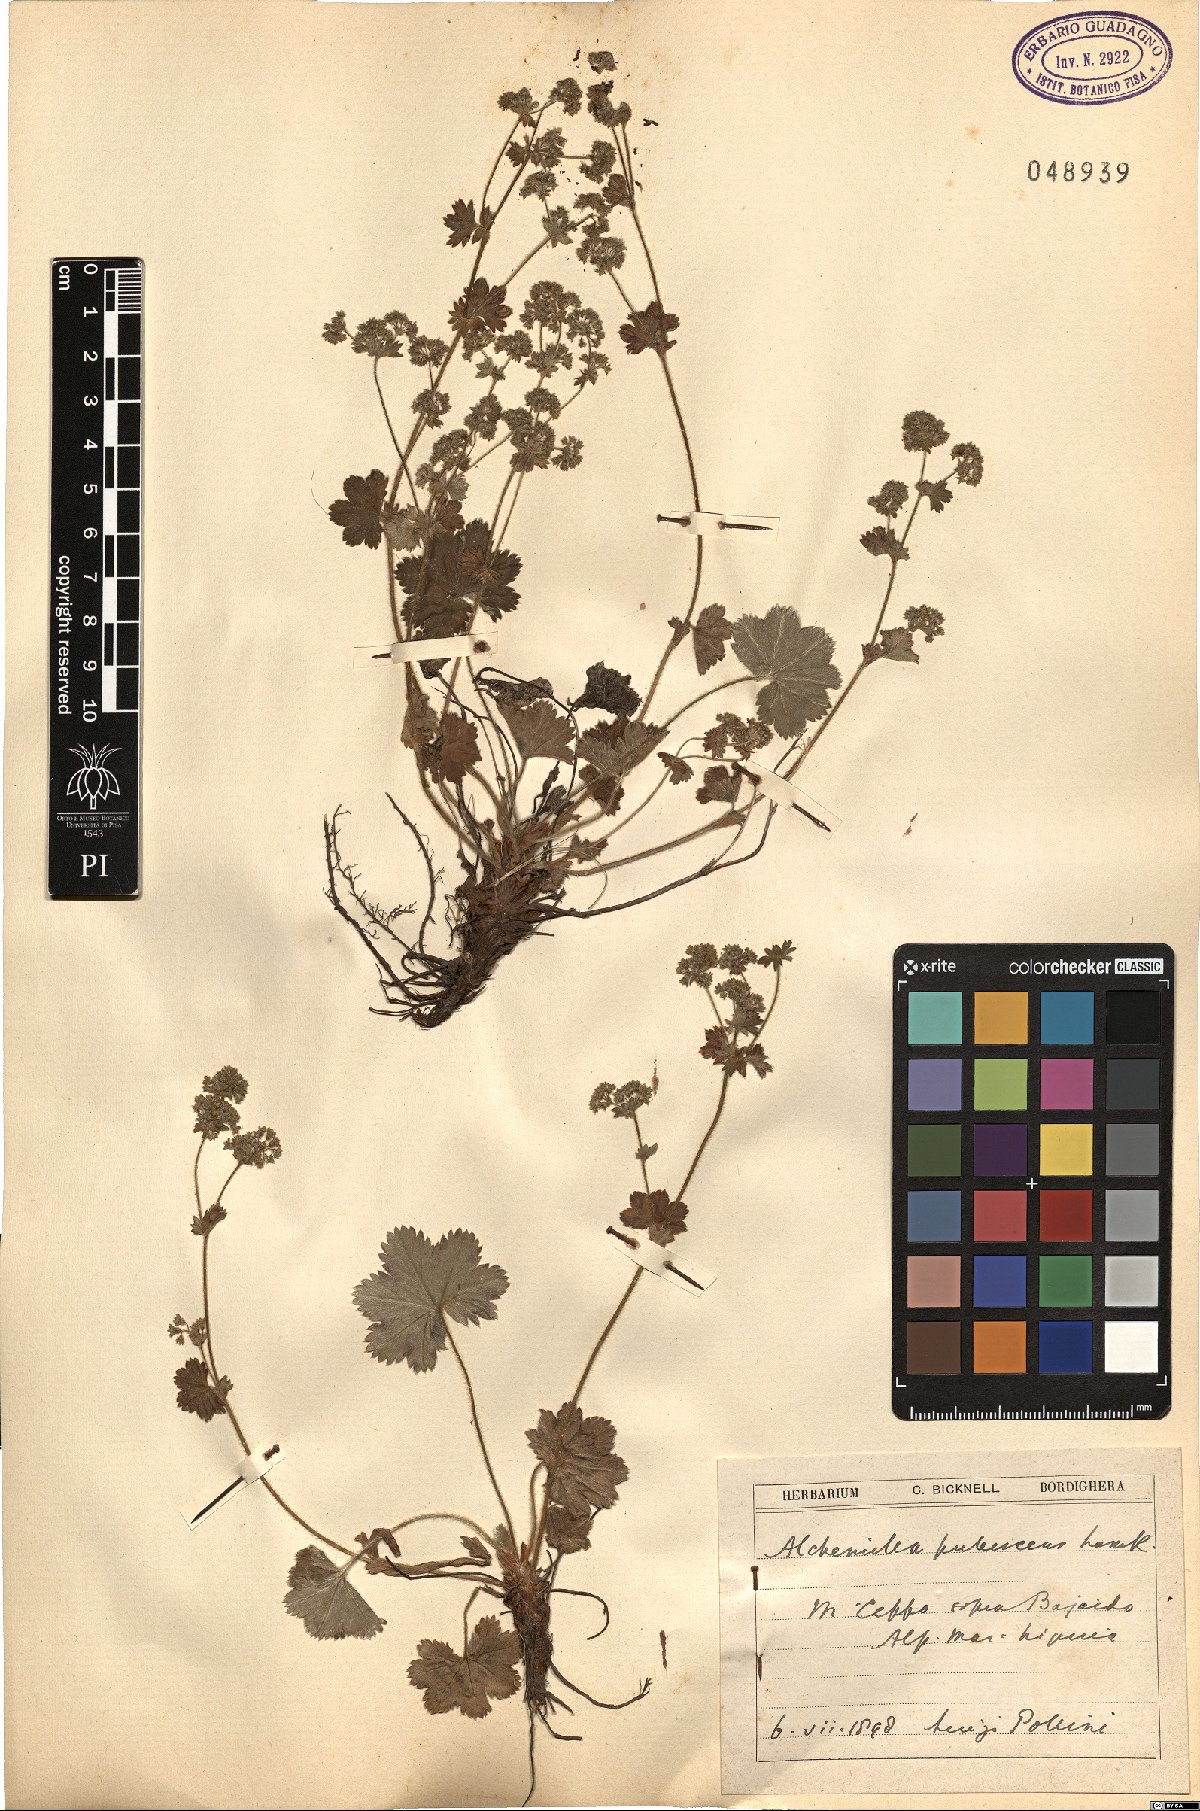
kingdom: Plantae
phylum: Tracheophyta
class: Magnoliopsida
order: Rosales
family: Rosaceae
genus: Alchemilla
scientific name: Alchemilla glaucescens
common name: Silky lady's mantle
